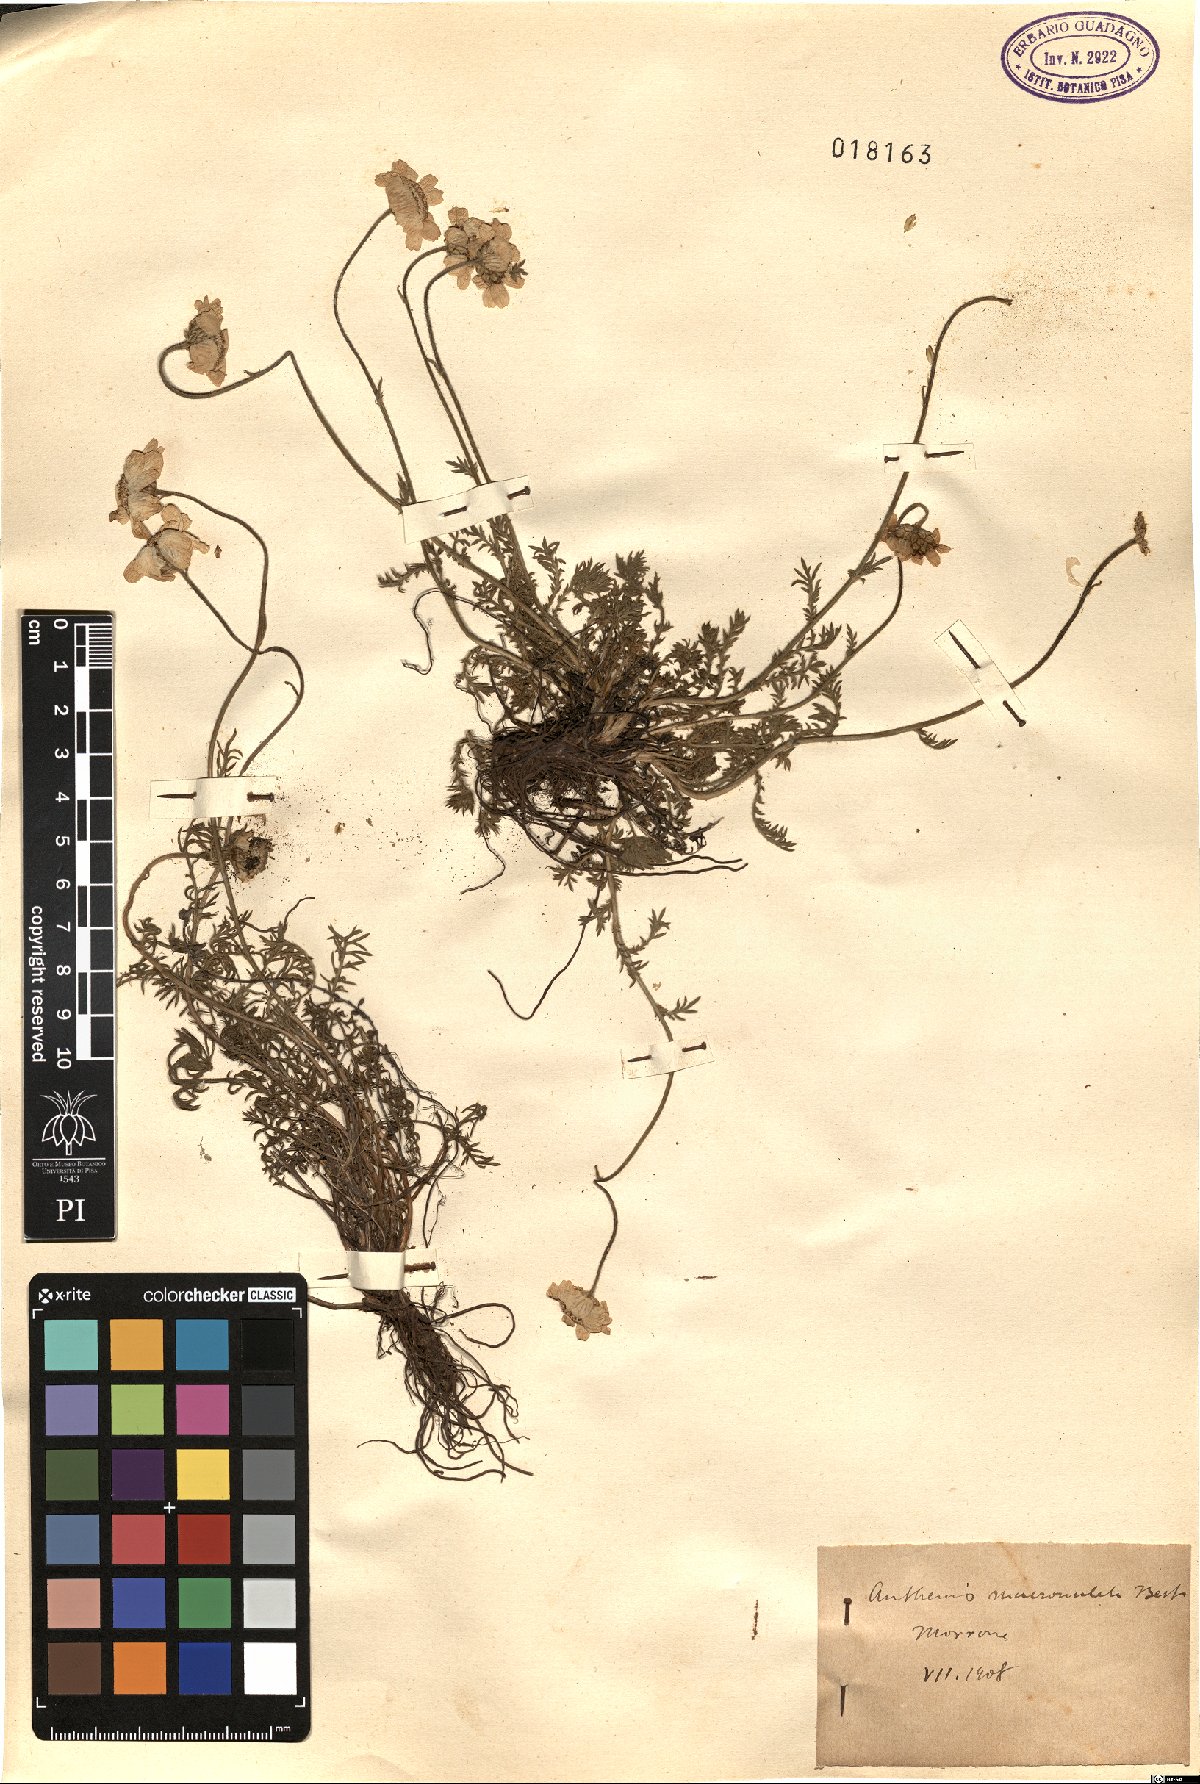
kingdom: Plantae
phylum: Tracheophyta
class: Magnoliopsida
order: Asterales
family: Asteraceae
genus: Achillea
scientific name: Achillea barrelieri
